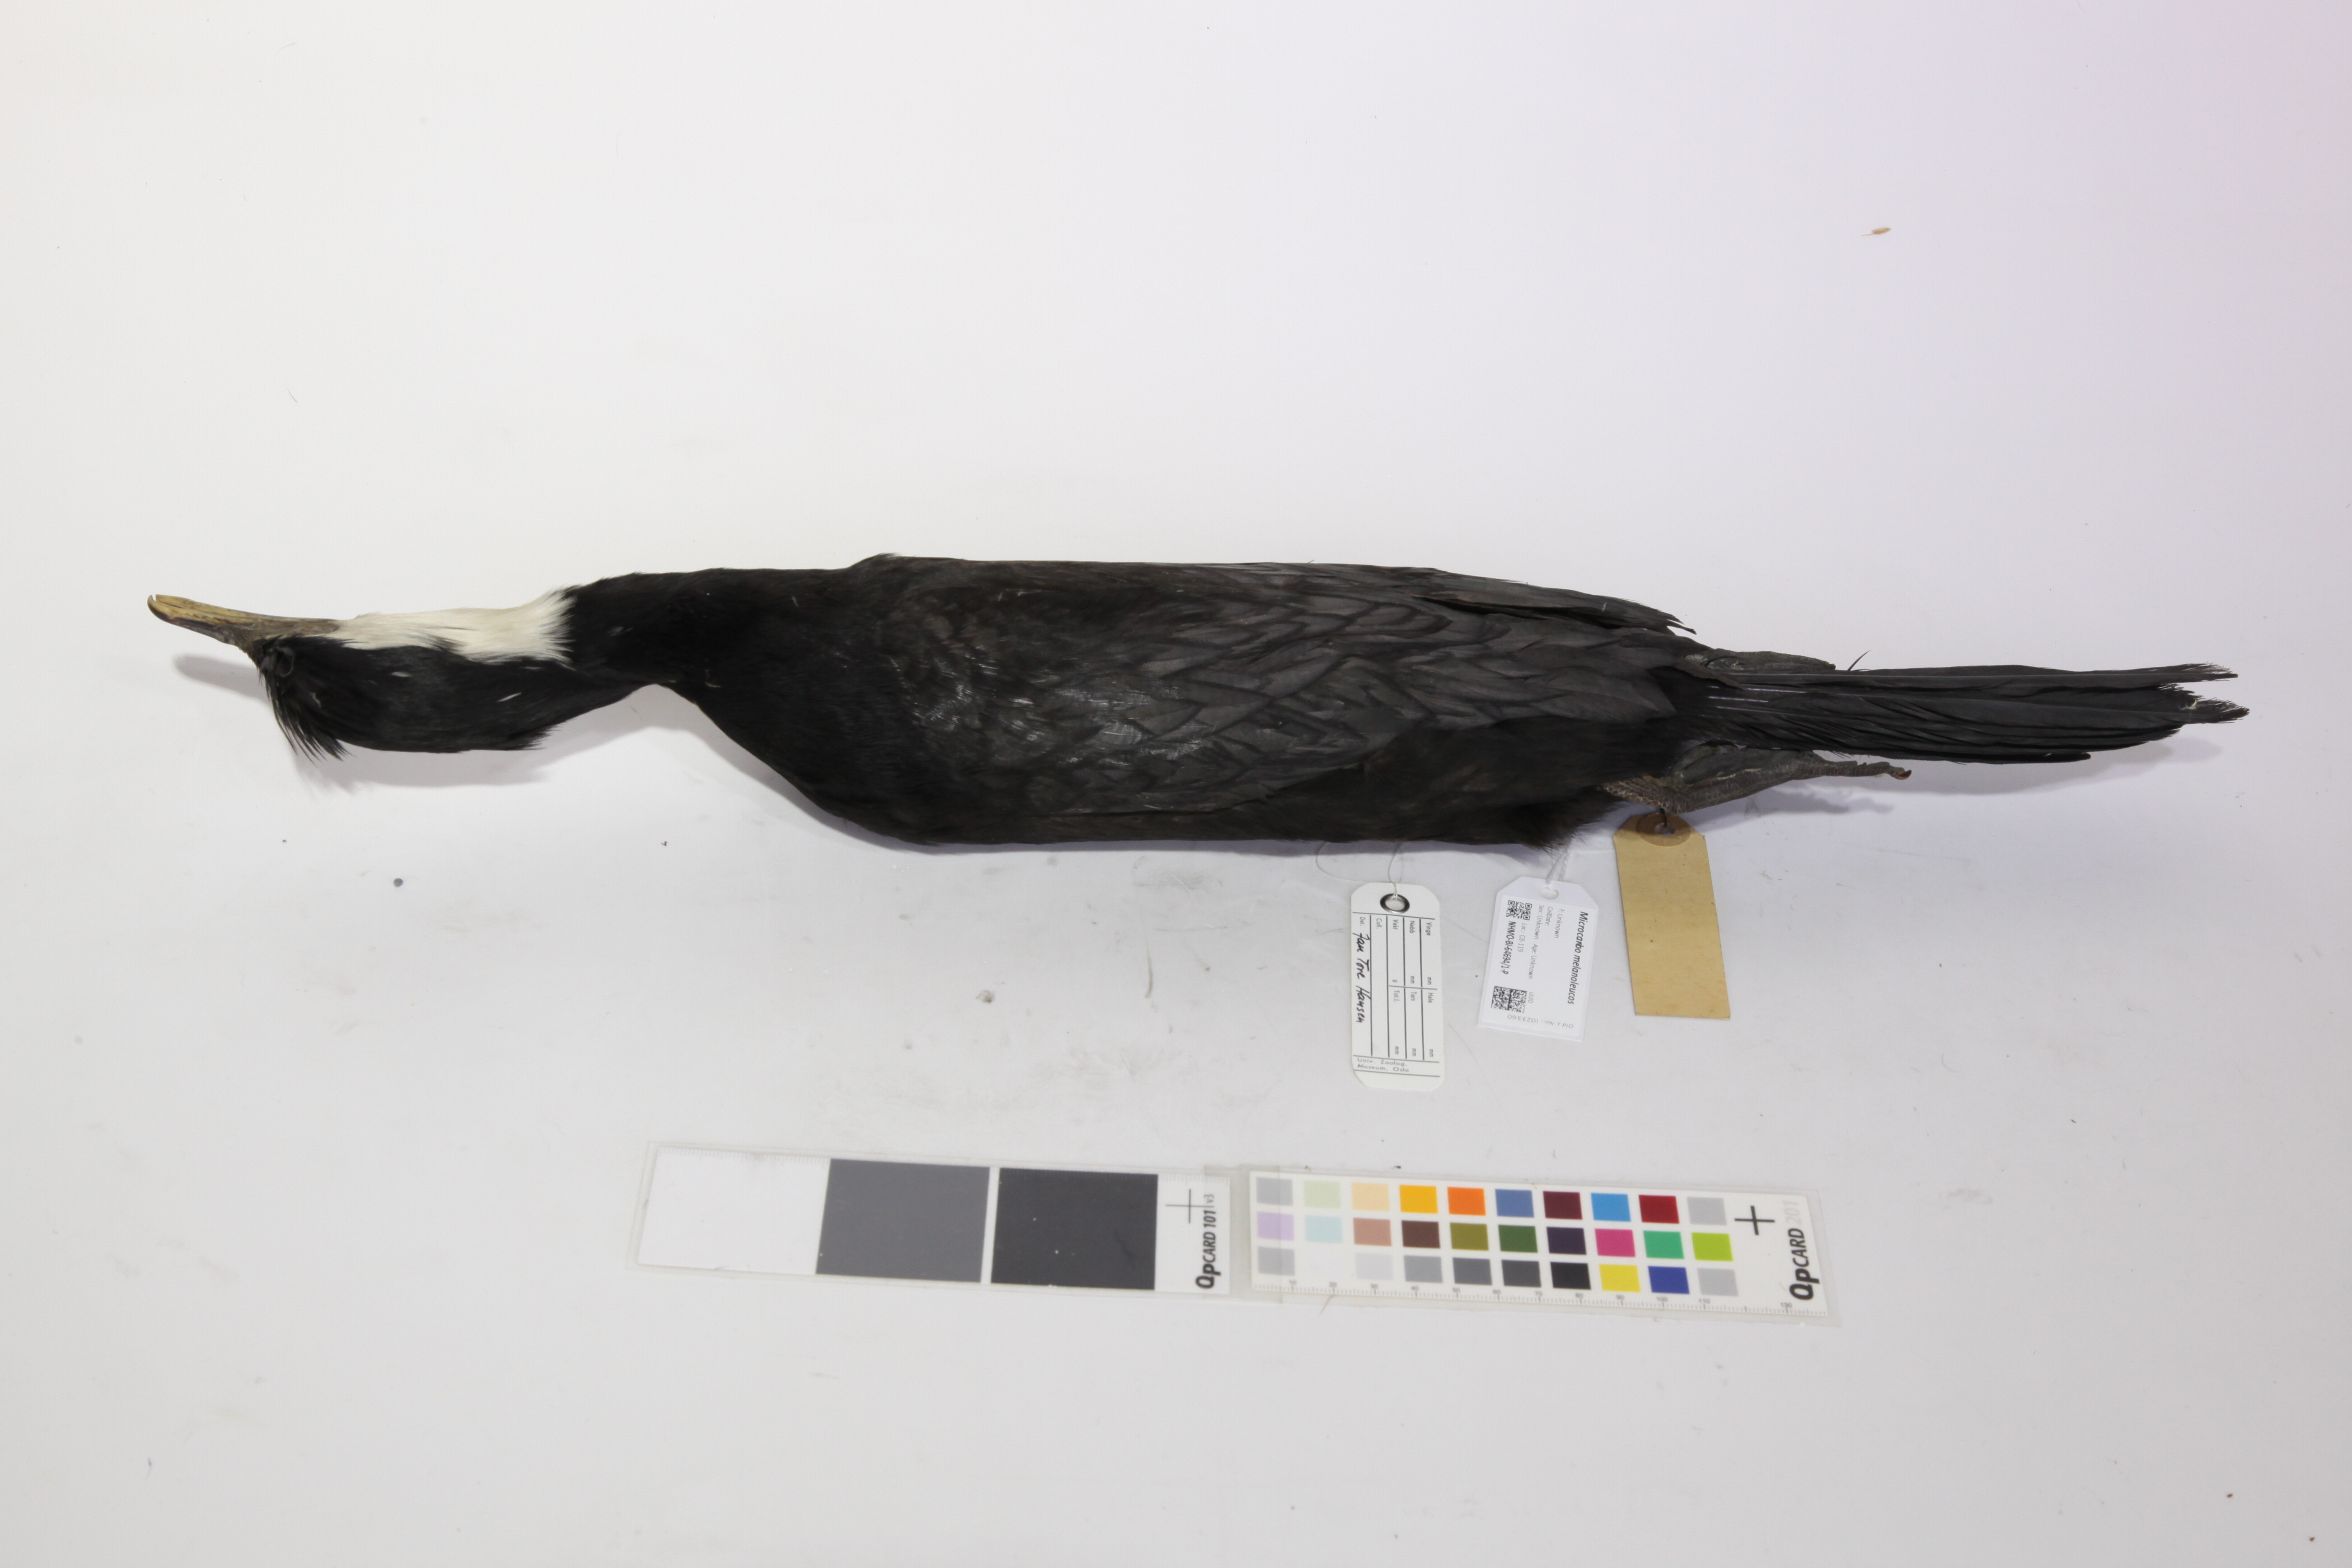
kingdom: Animalia
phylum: Chordata
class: Aves
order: Suliformes
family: Phalacrocoracidae
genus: Microcarbo
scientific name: Microcarbo melanoleucos
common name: Little pied cormorant
